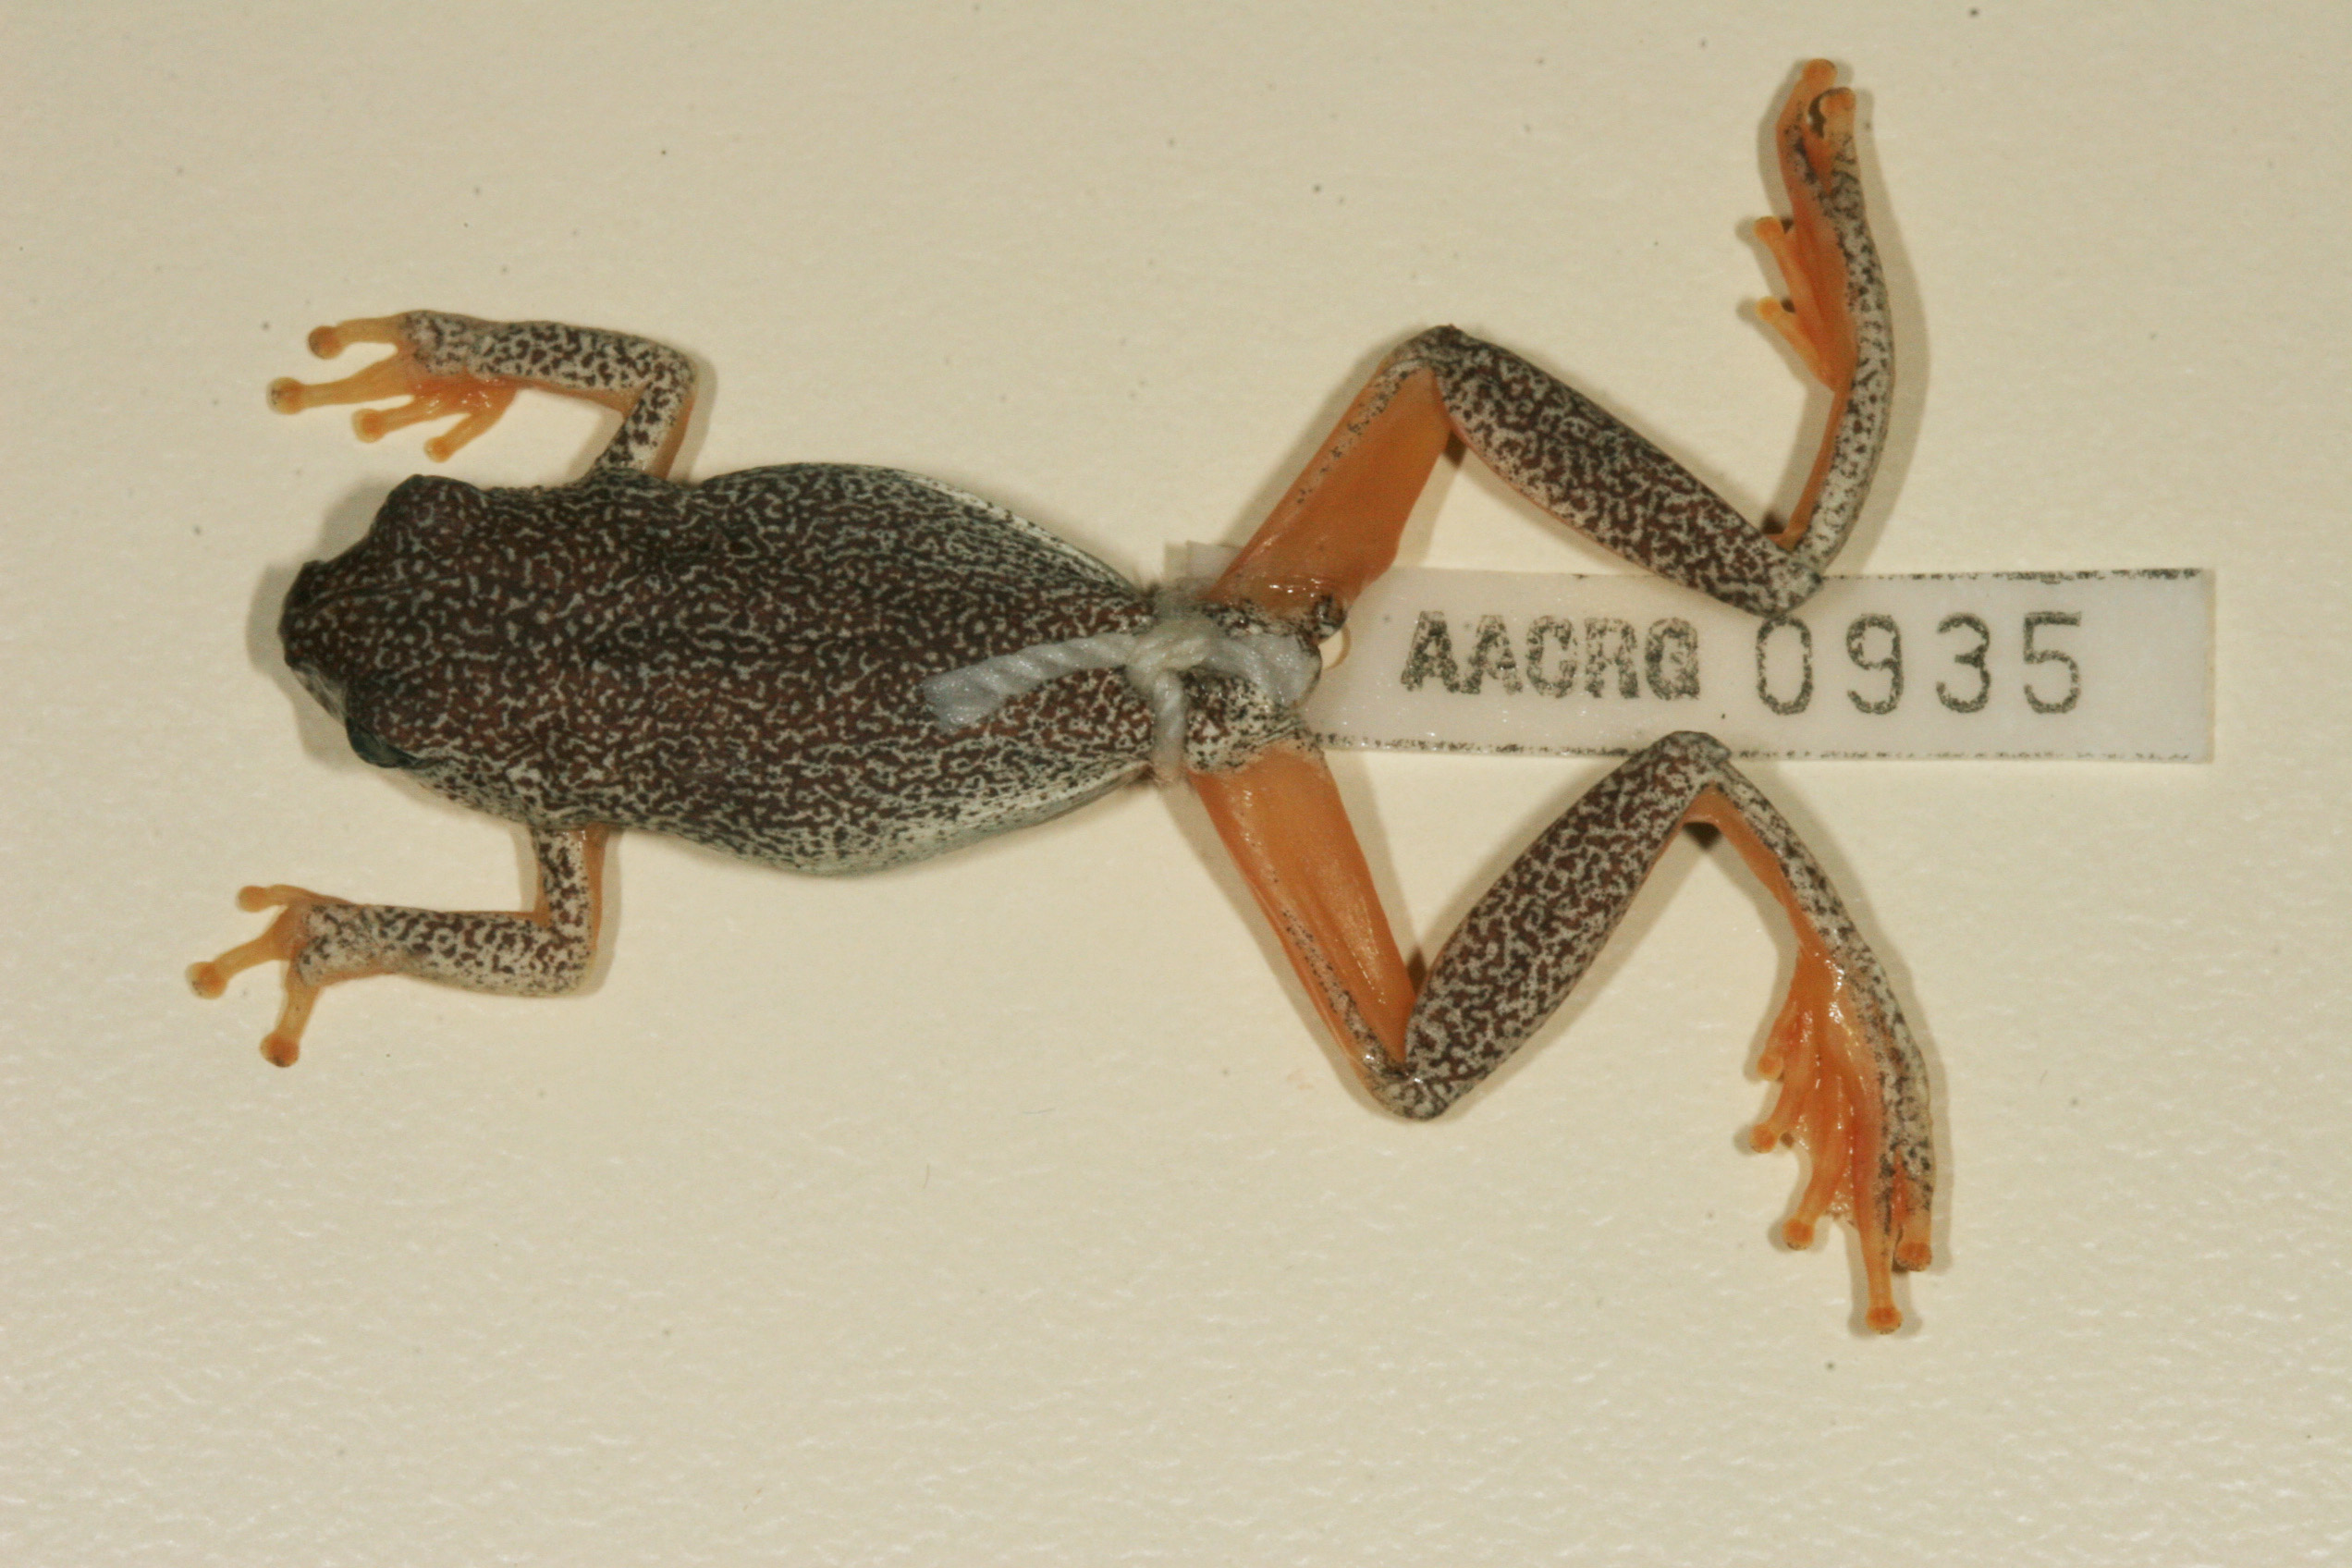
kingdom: Animalia
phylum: Chordata
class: Amphibia
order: Anura
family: Hyperoliidae
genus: Hyperolius
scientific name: Hyperolius parallelus
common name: Angolan reed frog
